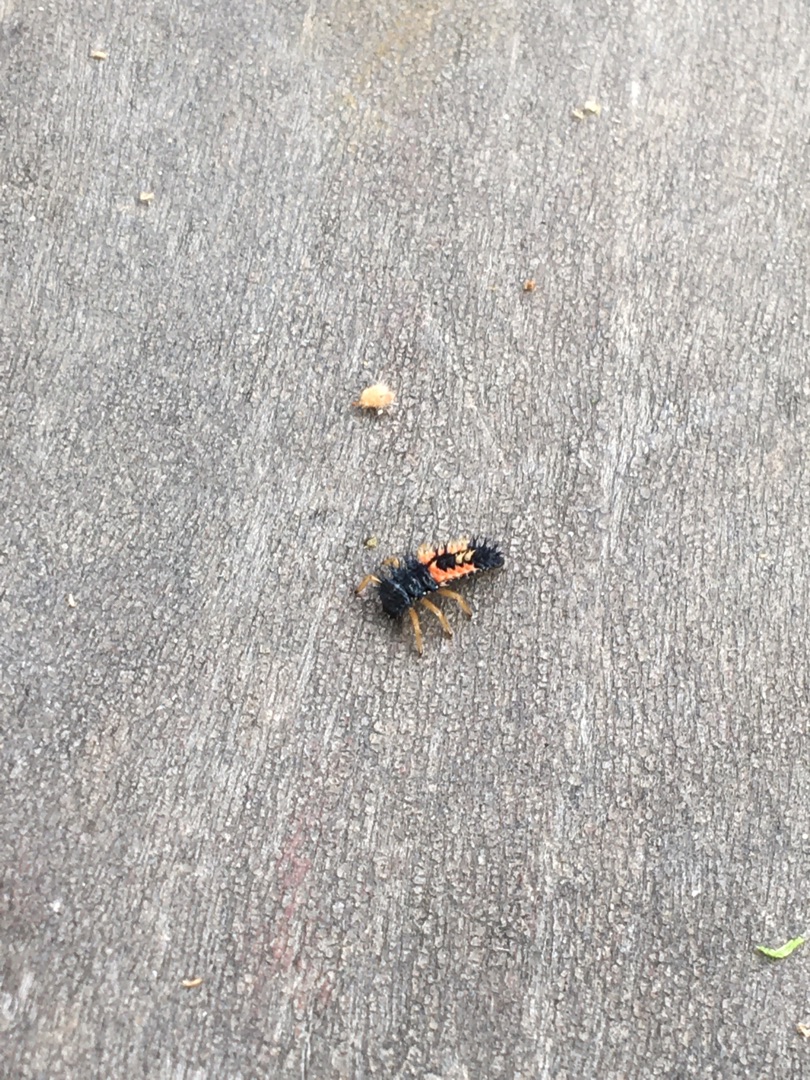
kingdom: Animalia
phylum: Arthropoda
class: Insecta
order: Coleoptera
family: Coccinellidae
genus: Harmonia
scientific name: Harmonia axyridis
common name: Harlekinmariehøne
